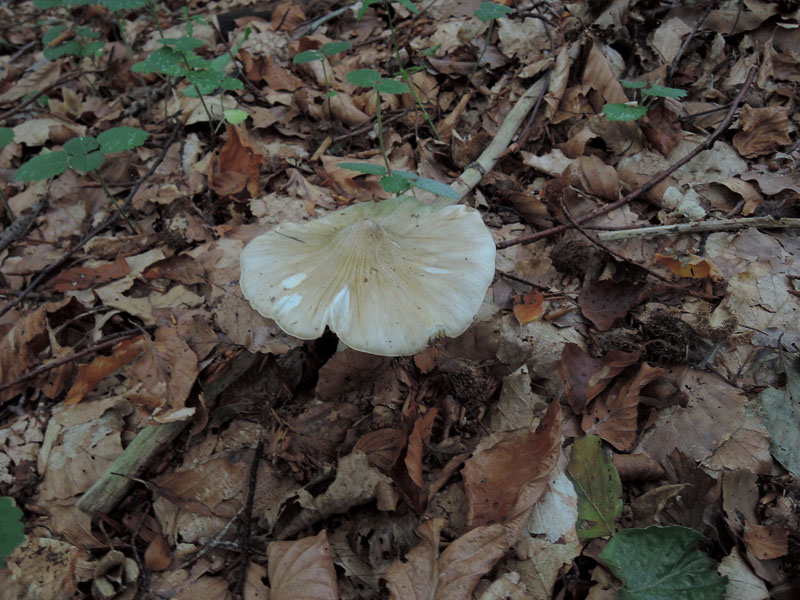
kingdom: Fungi
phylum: Basidiomycota
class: Agaricomycetes
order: Agaricales
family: Tricholomataceae
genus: Tricholoma
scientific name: Tricholoma umbonatum
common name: puklet ridderhat
